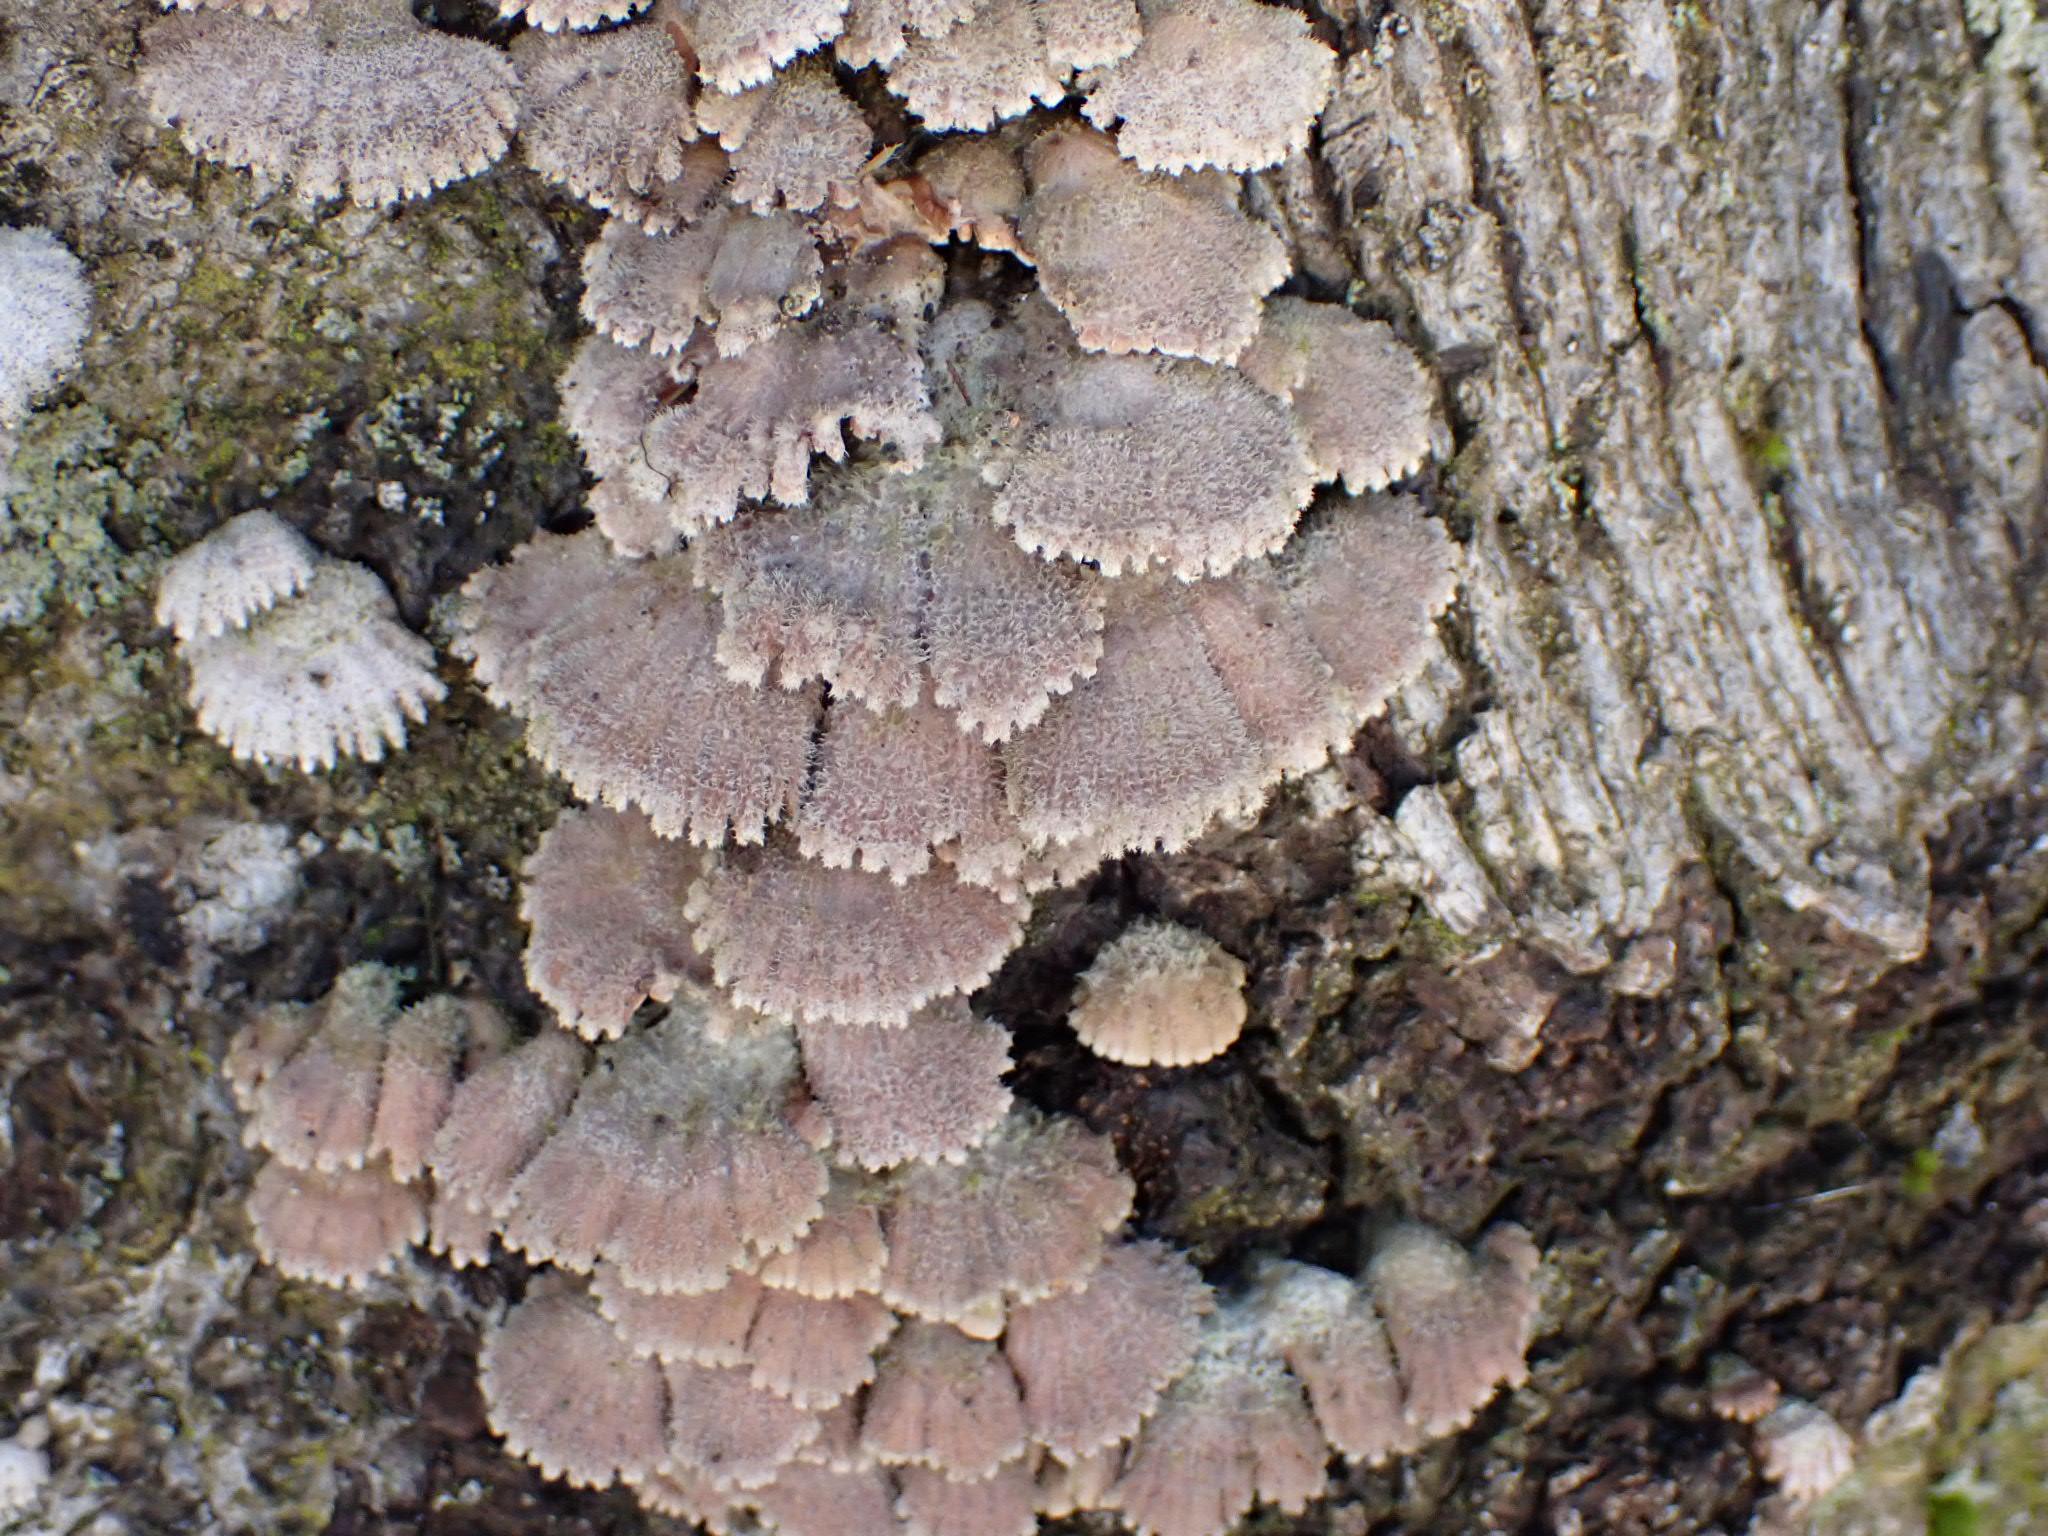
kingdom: Fungi
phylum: Basidiomycota
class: Agaricomycetes
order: Agaricales
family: Schizophyllaceae
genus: Schizophyllum
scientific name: Schizophyllum commune
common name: kløvblad
